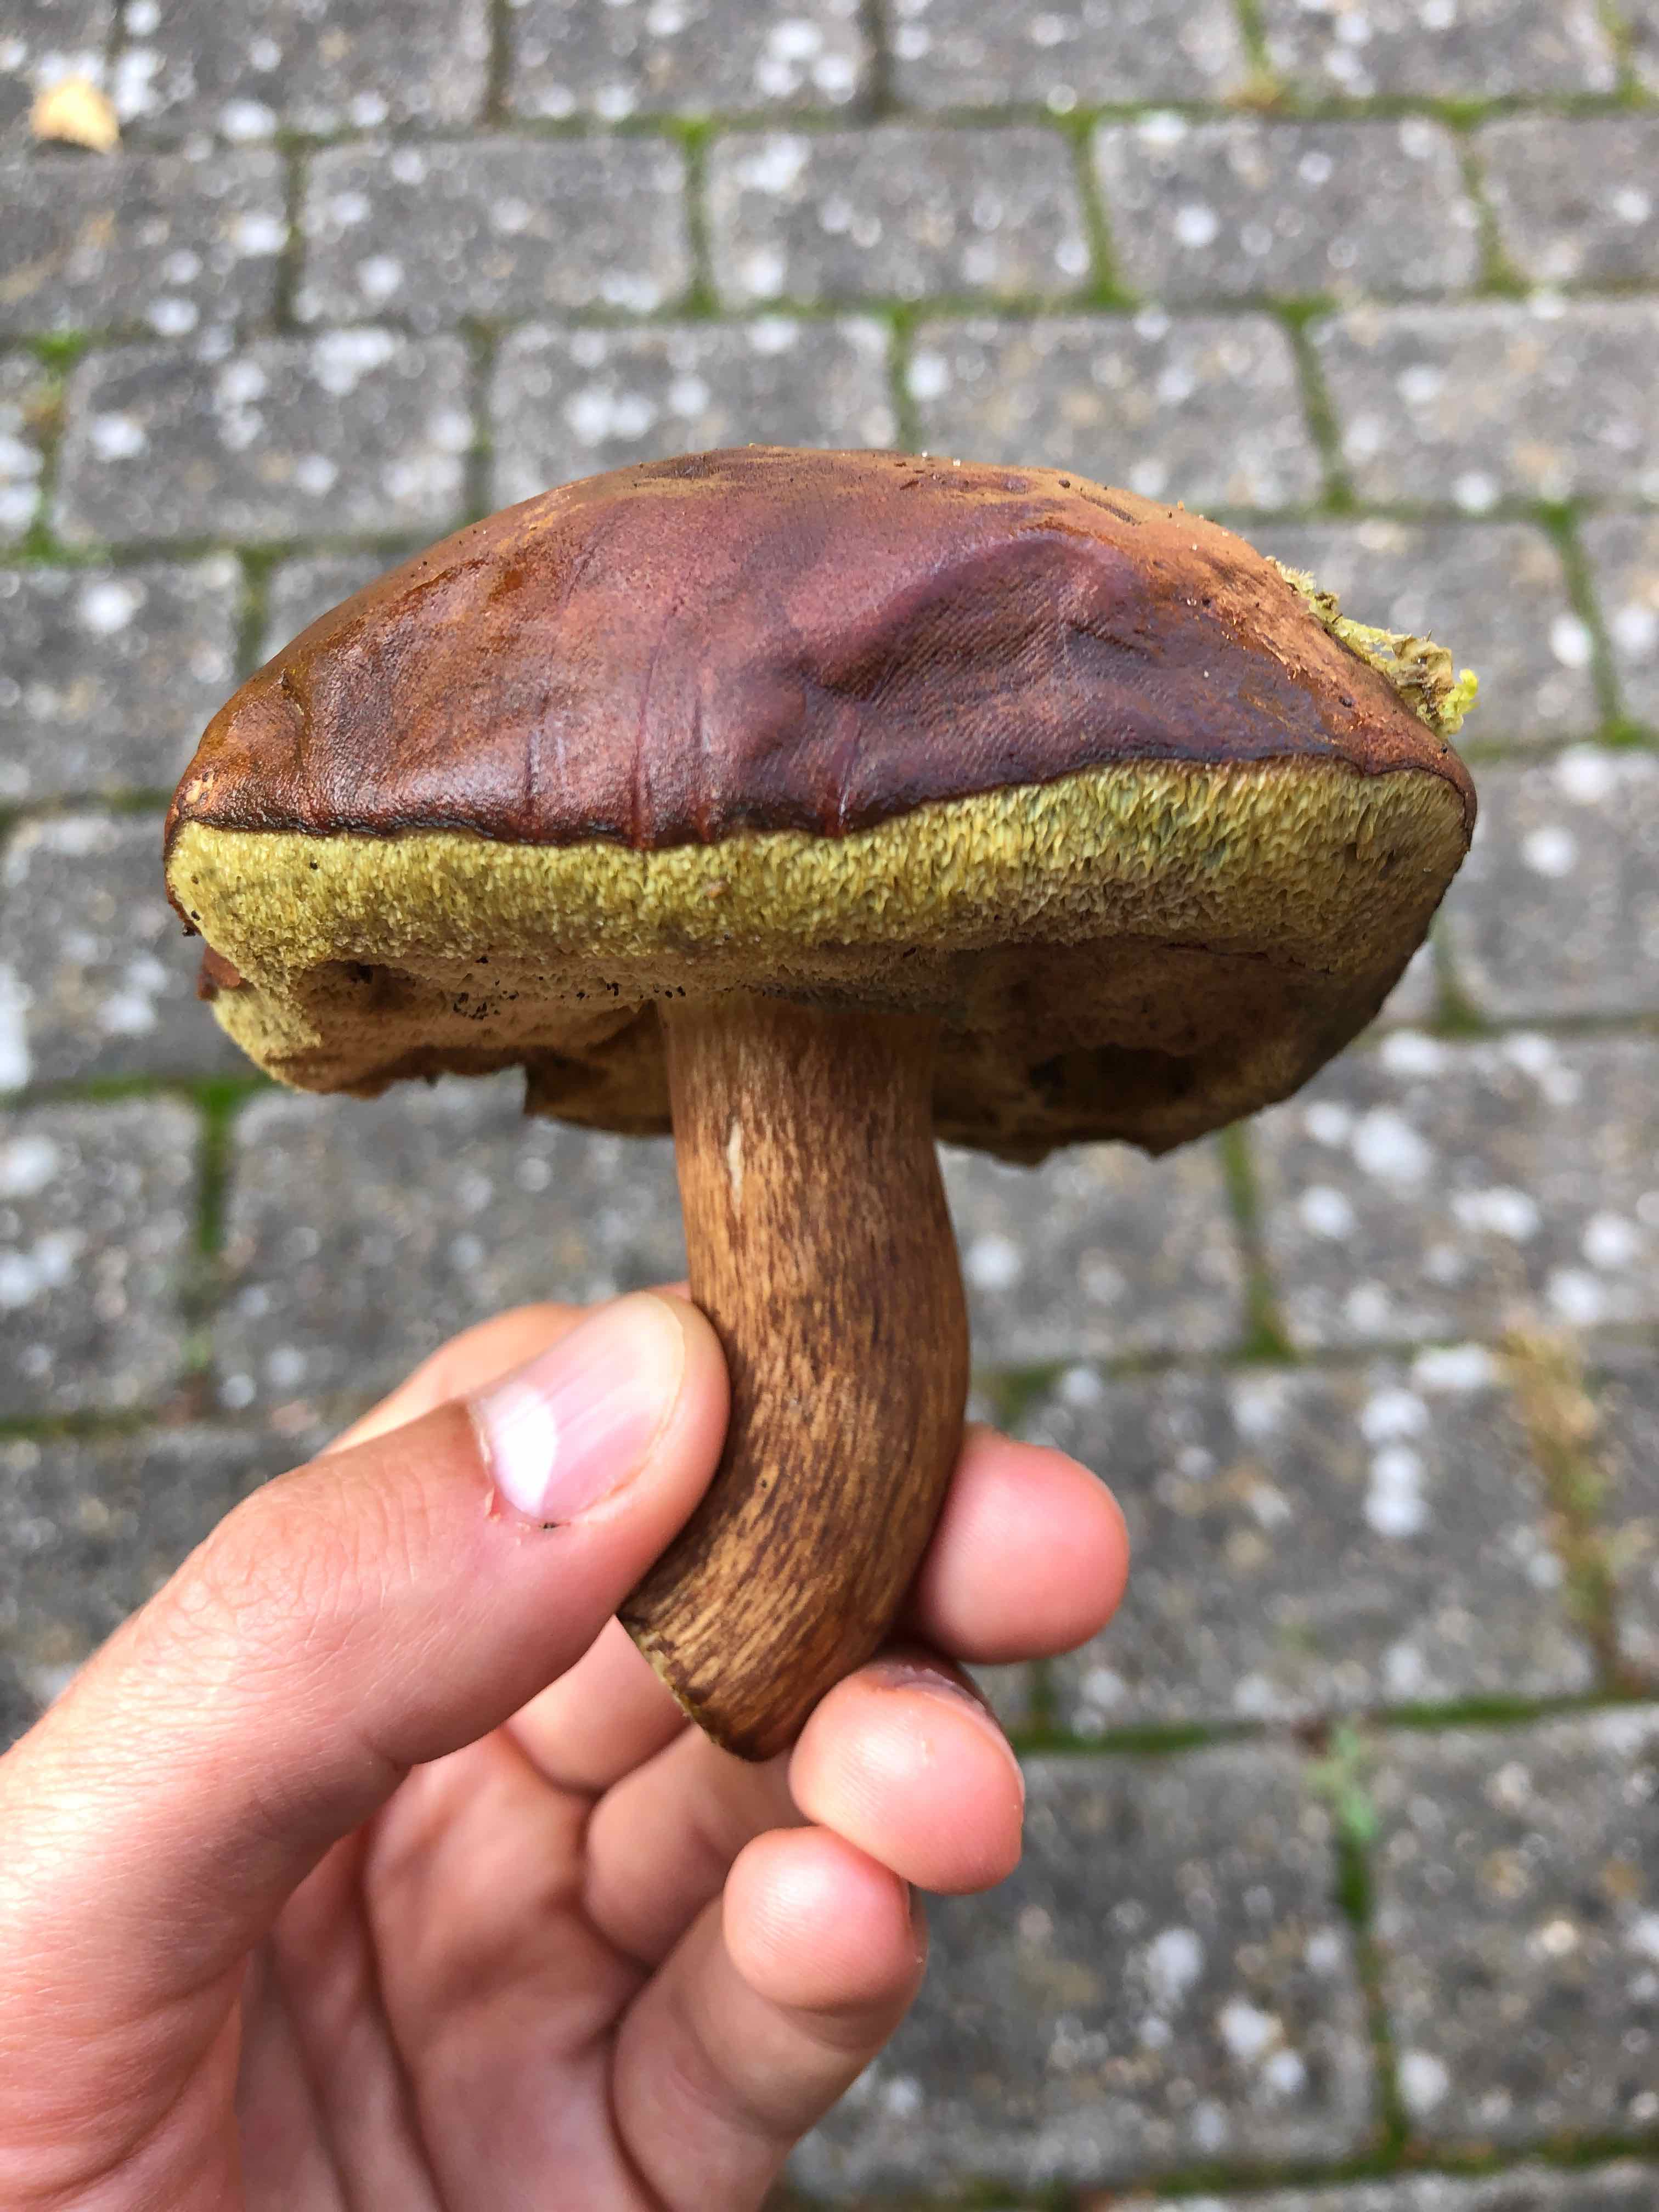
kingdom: Fungi
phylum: Basidiomycota
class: Agaricomycetes
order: Boletales
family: Boletaceae
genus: Imleria
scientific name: Imleria badia
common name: brunstokket rørhat
